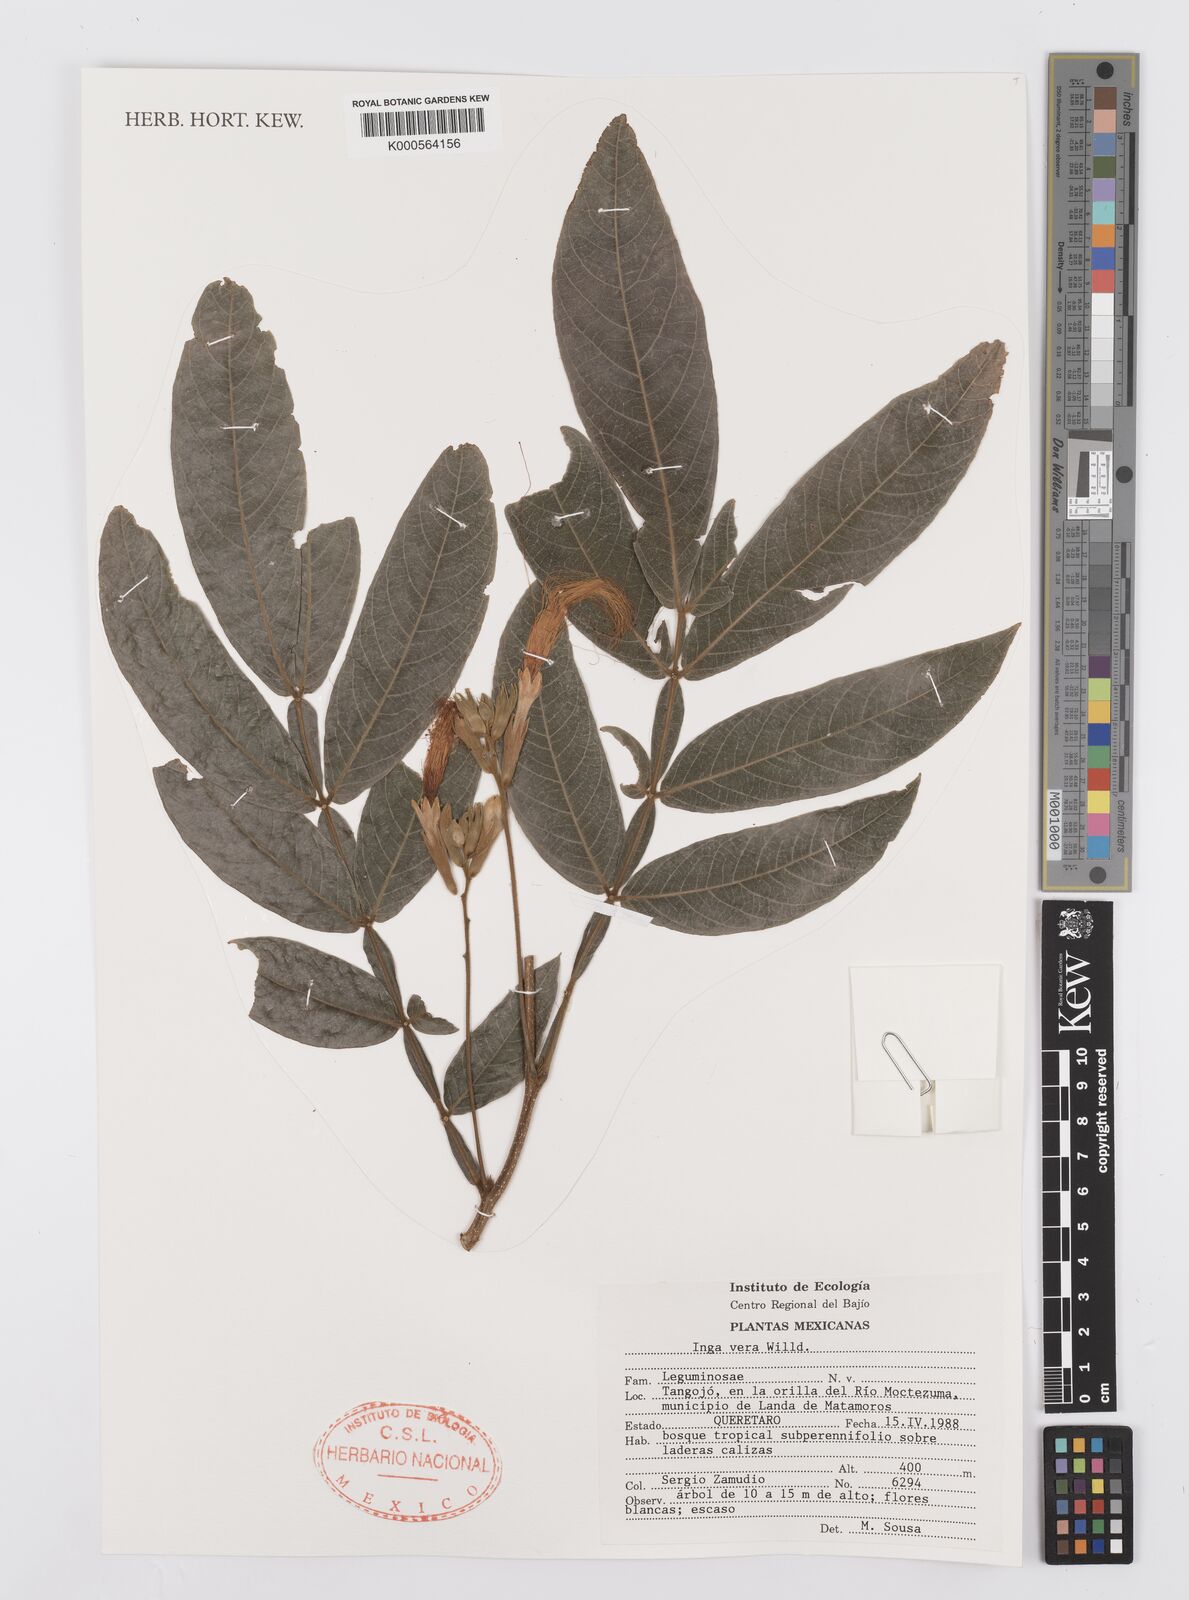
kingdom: Plantae
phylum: Tracheophyta
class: Magnoliopsida
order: Fabales
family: Fabaceae
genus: Inga
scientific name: Inga vera
